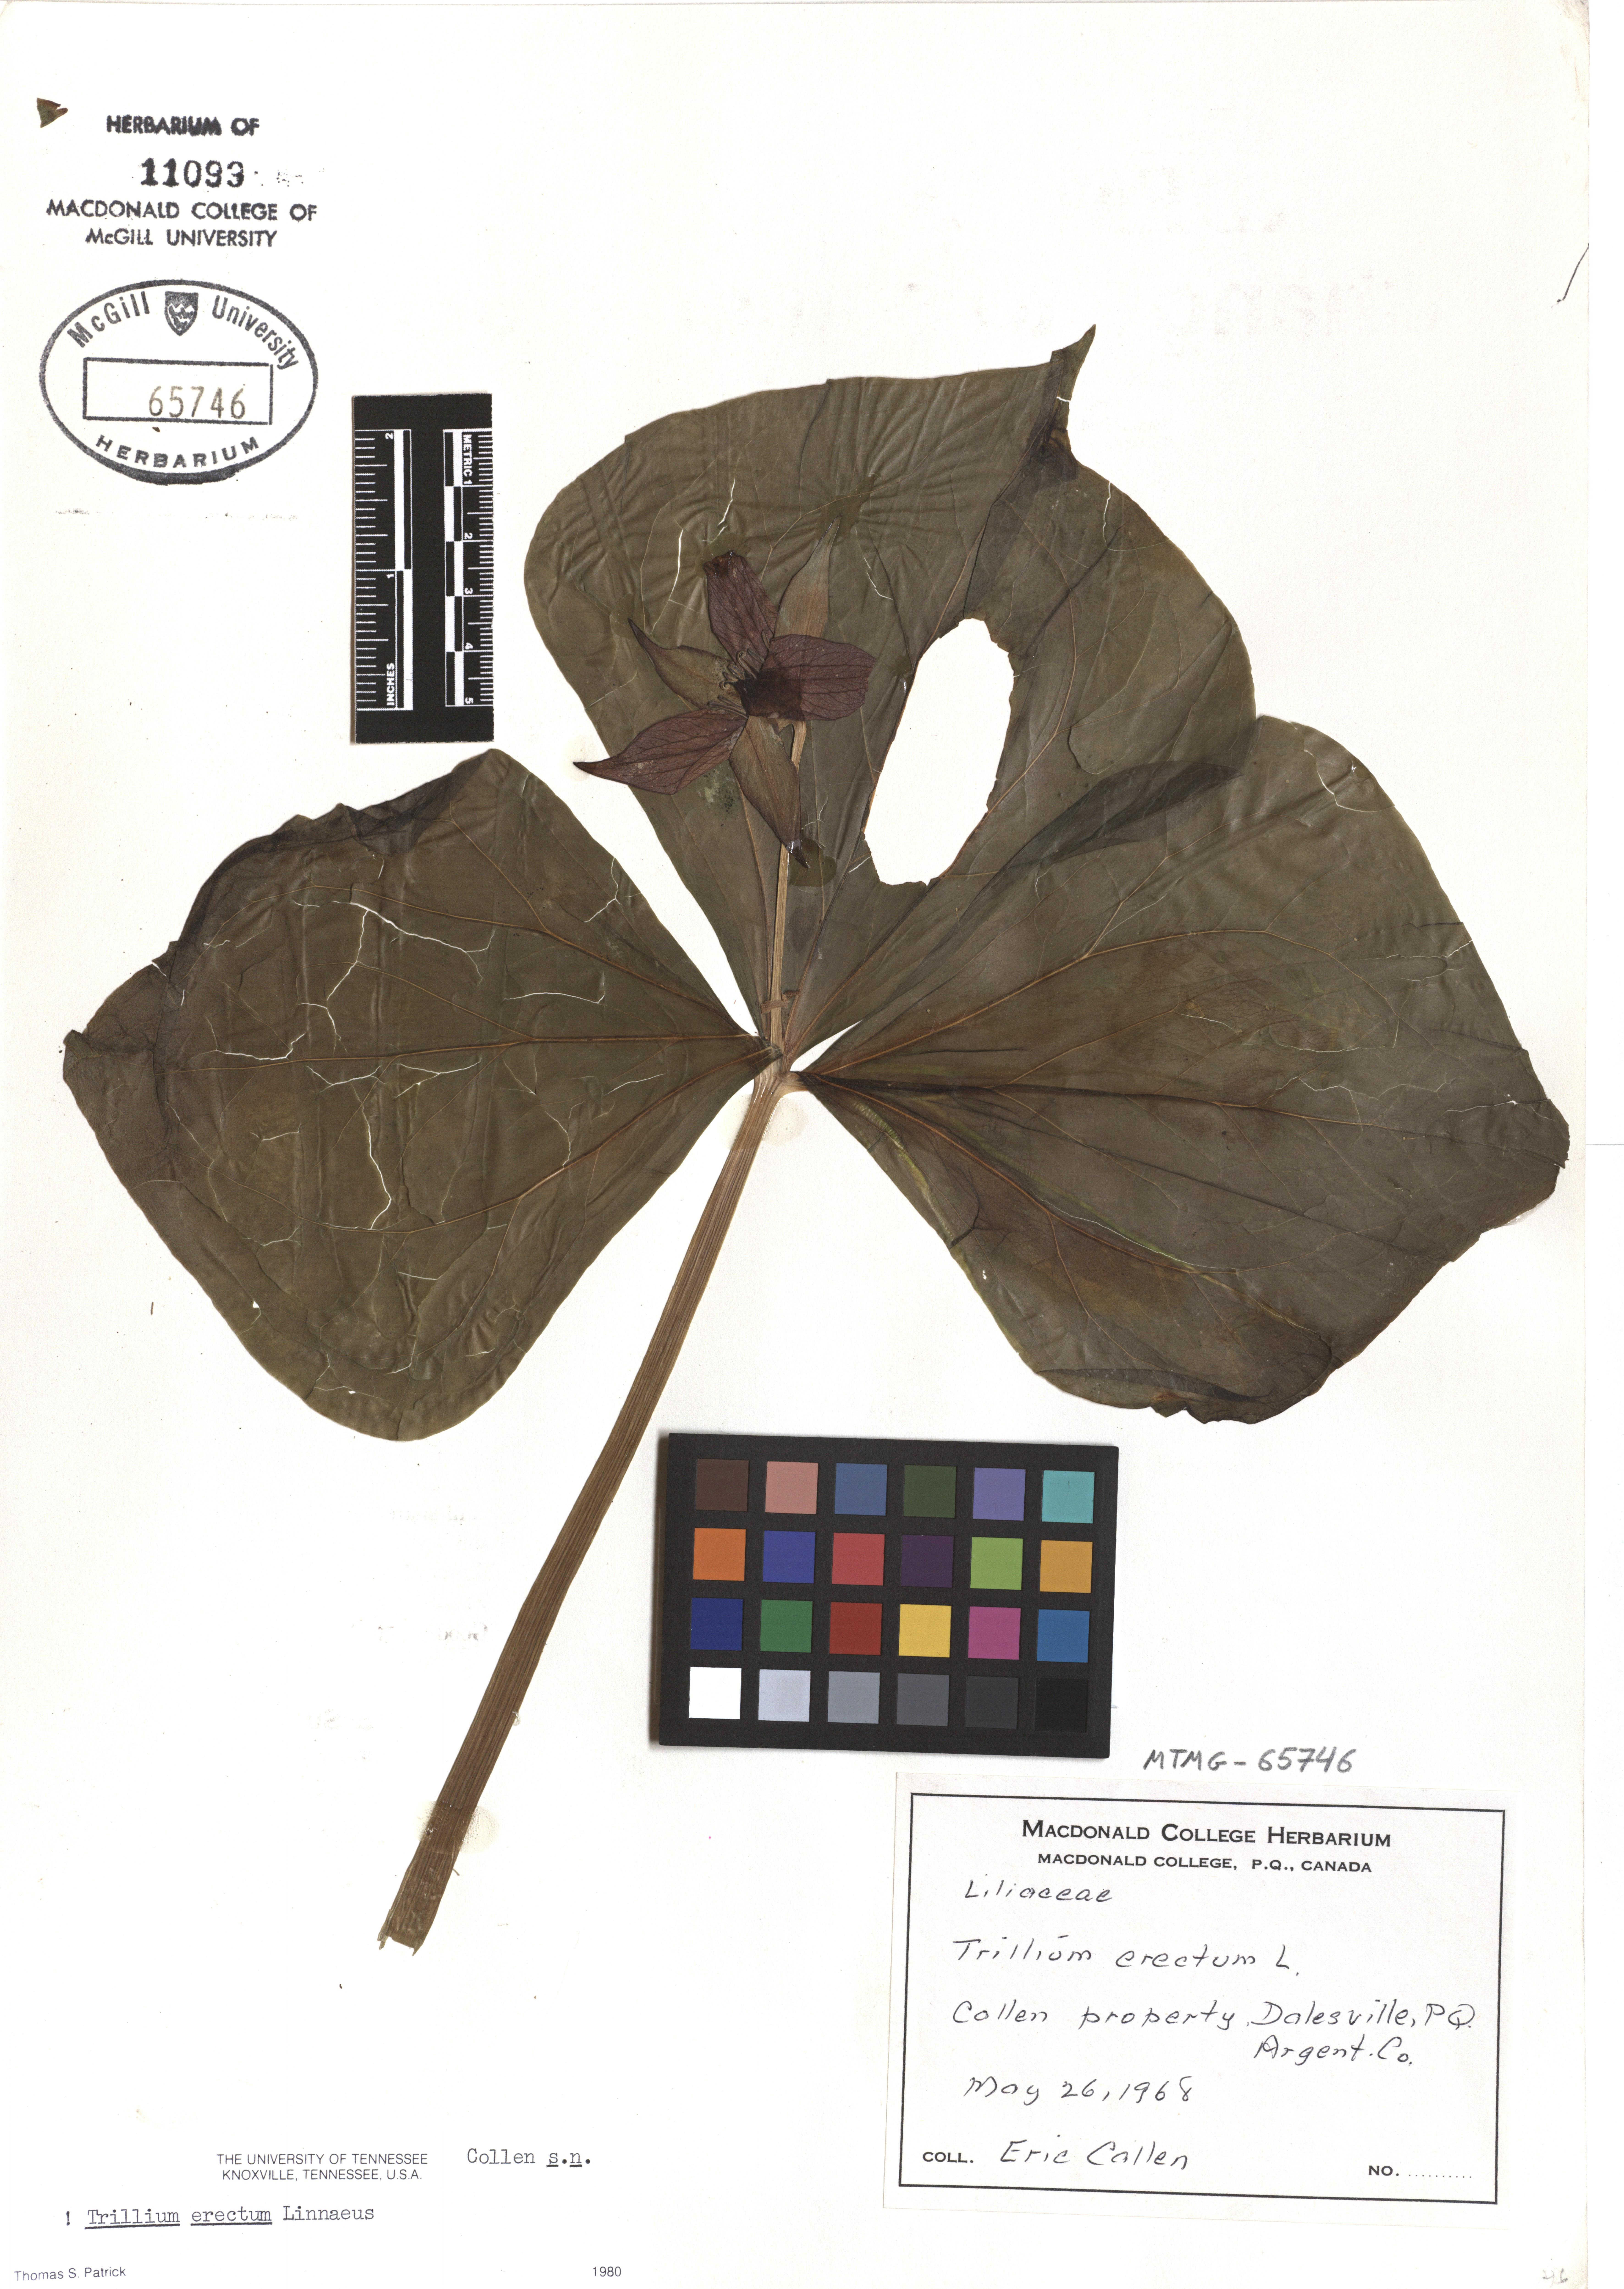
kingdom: Plantae
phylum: Tracheophyta
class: Liliopsida
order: Liliales
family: Melanthiaceae
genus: Trillium
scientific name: Trillium erectum
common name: Purple trillium
